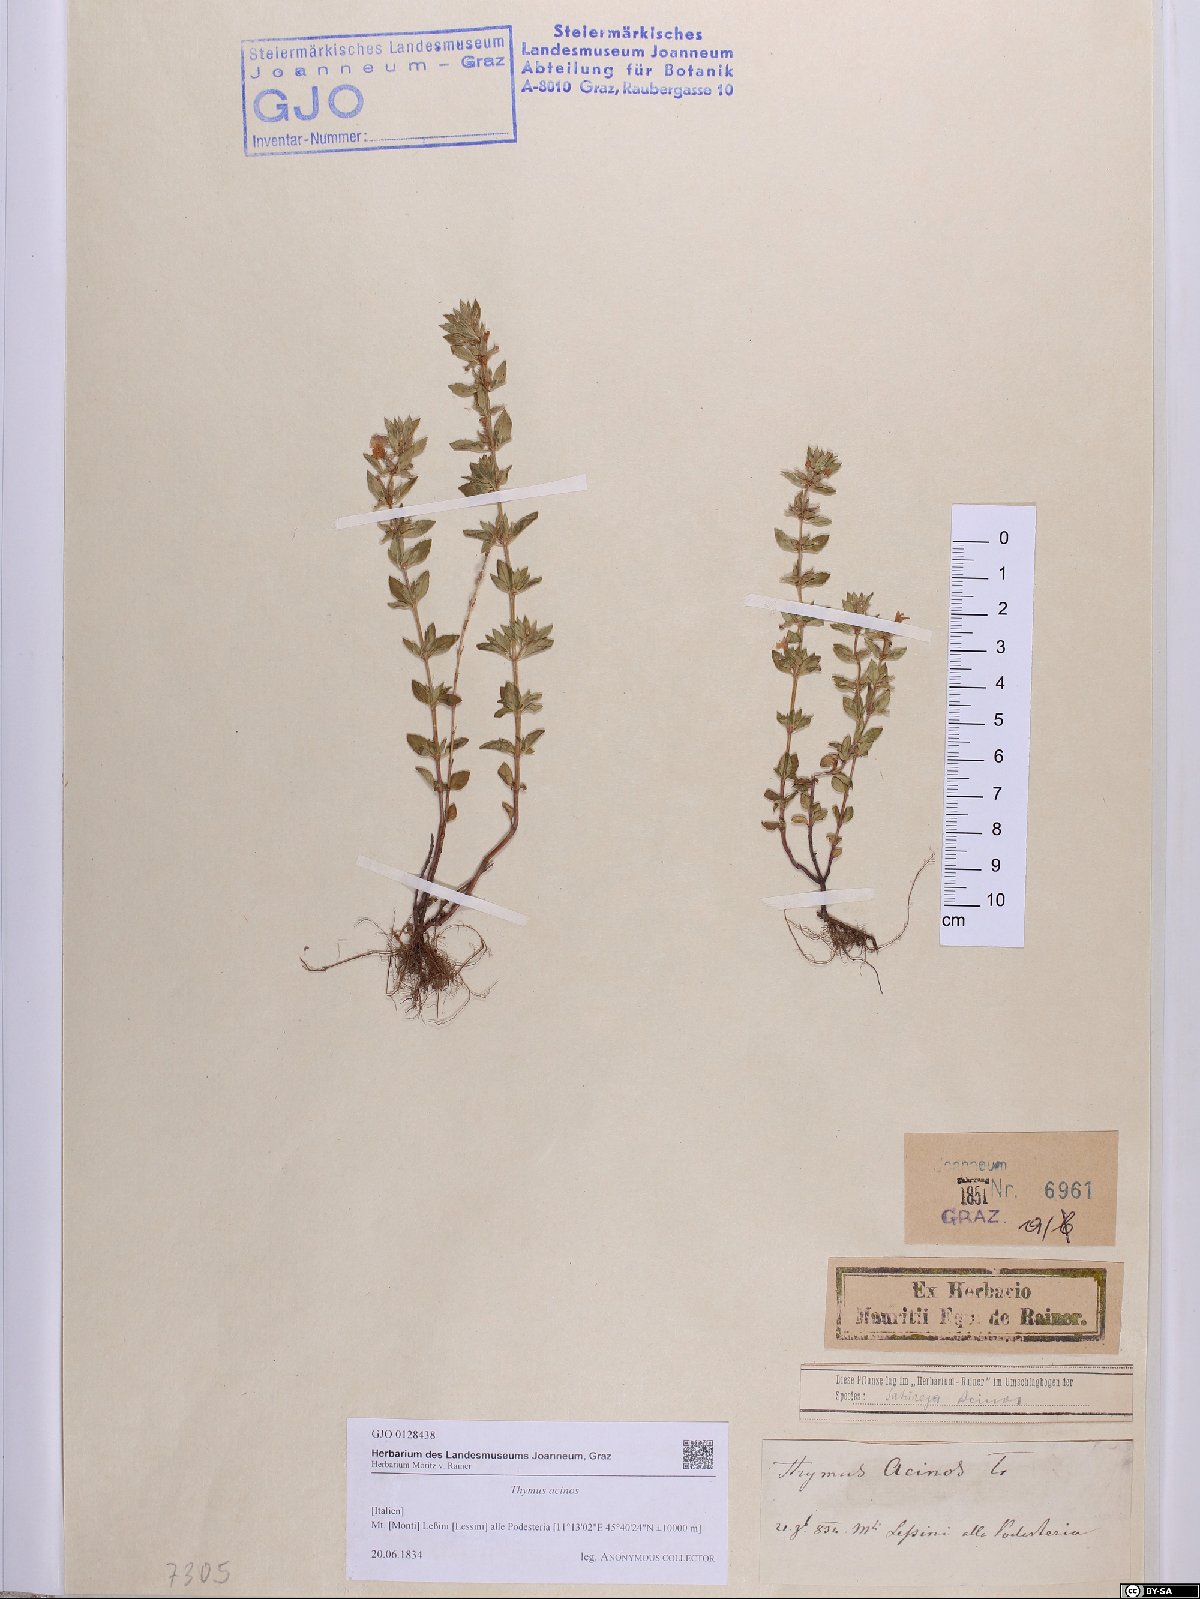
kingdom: Plantae
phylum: Tracheophyta
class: Magnoliopsida
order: Lamiales
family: Lamiaceae
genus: Clinopodium
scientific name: Clinopodium acinos
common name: Basil thyme
